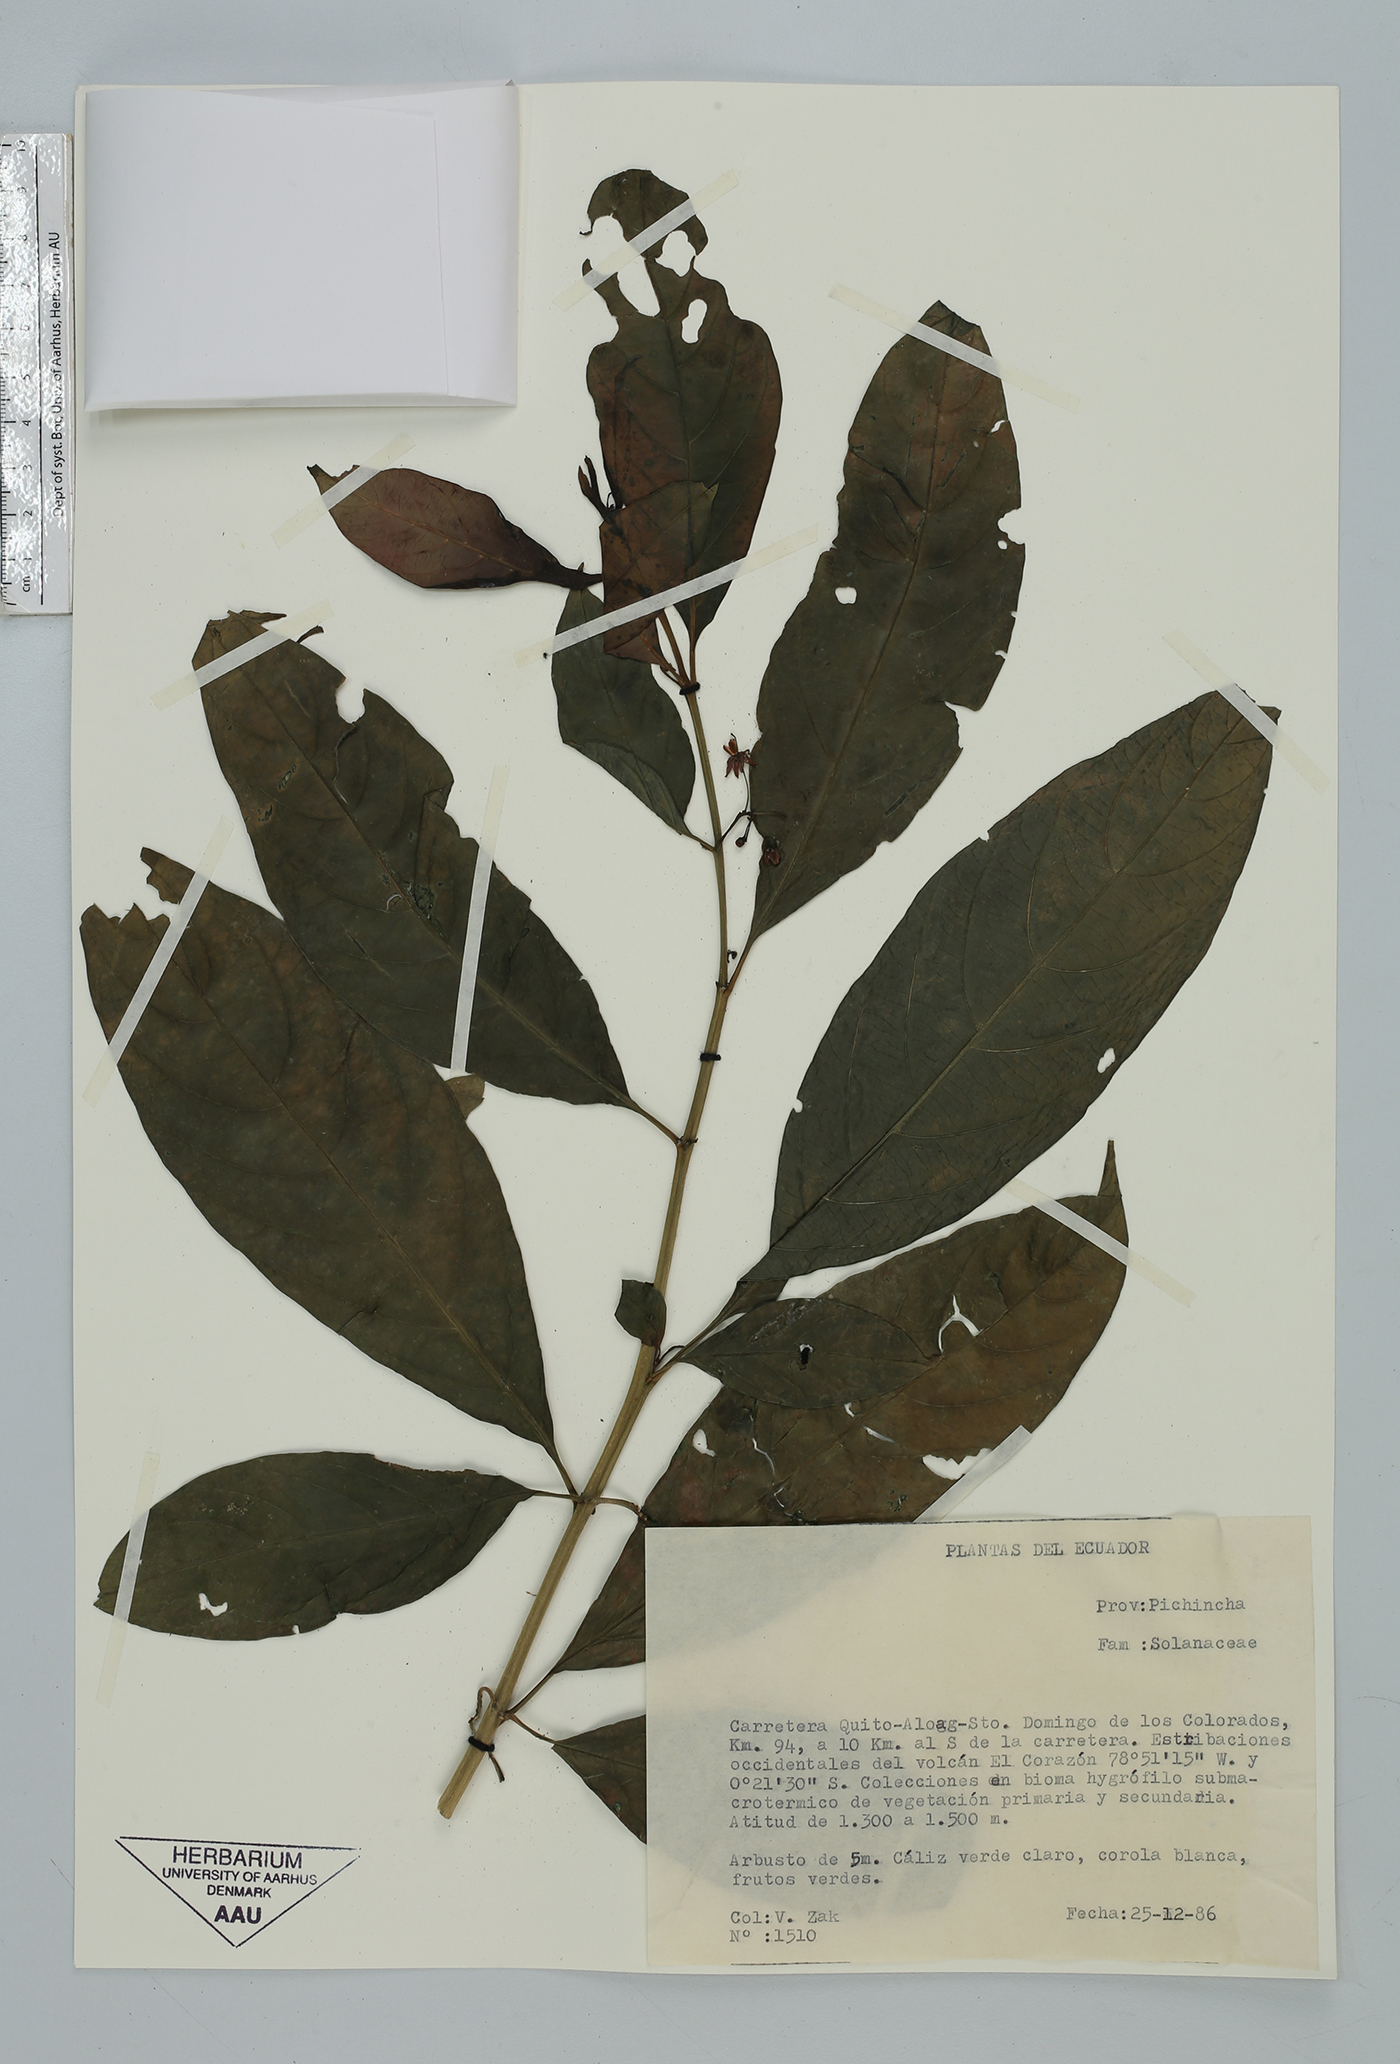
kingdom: Plantae
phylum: Tracheophyta
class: Magnoliopsida
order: Solanales
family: Solanaceae
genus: Solanum
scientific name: Solanum
